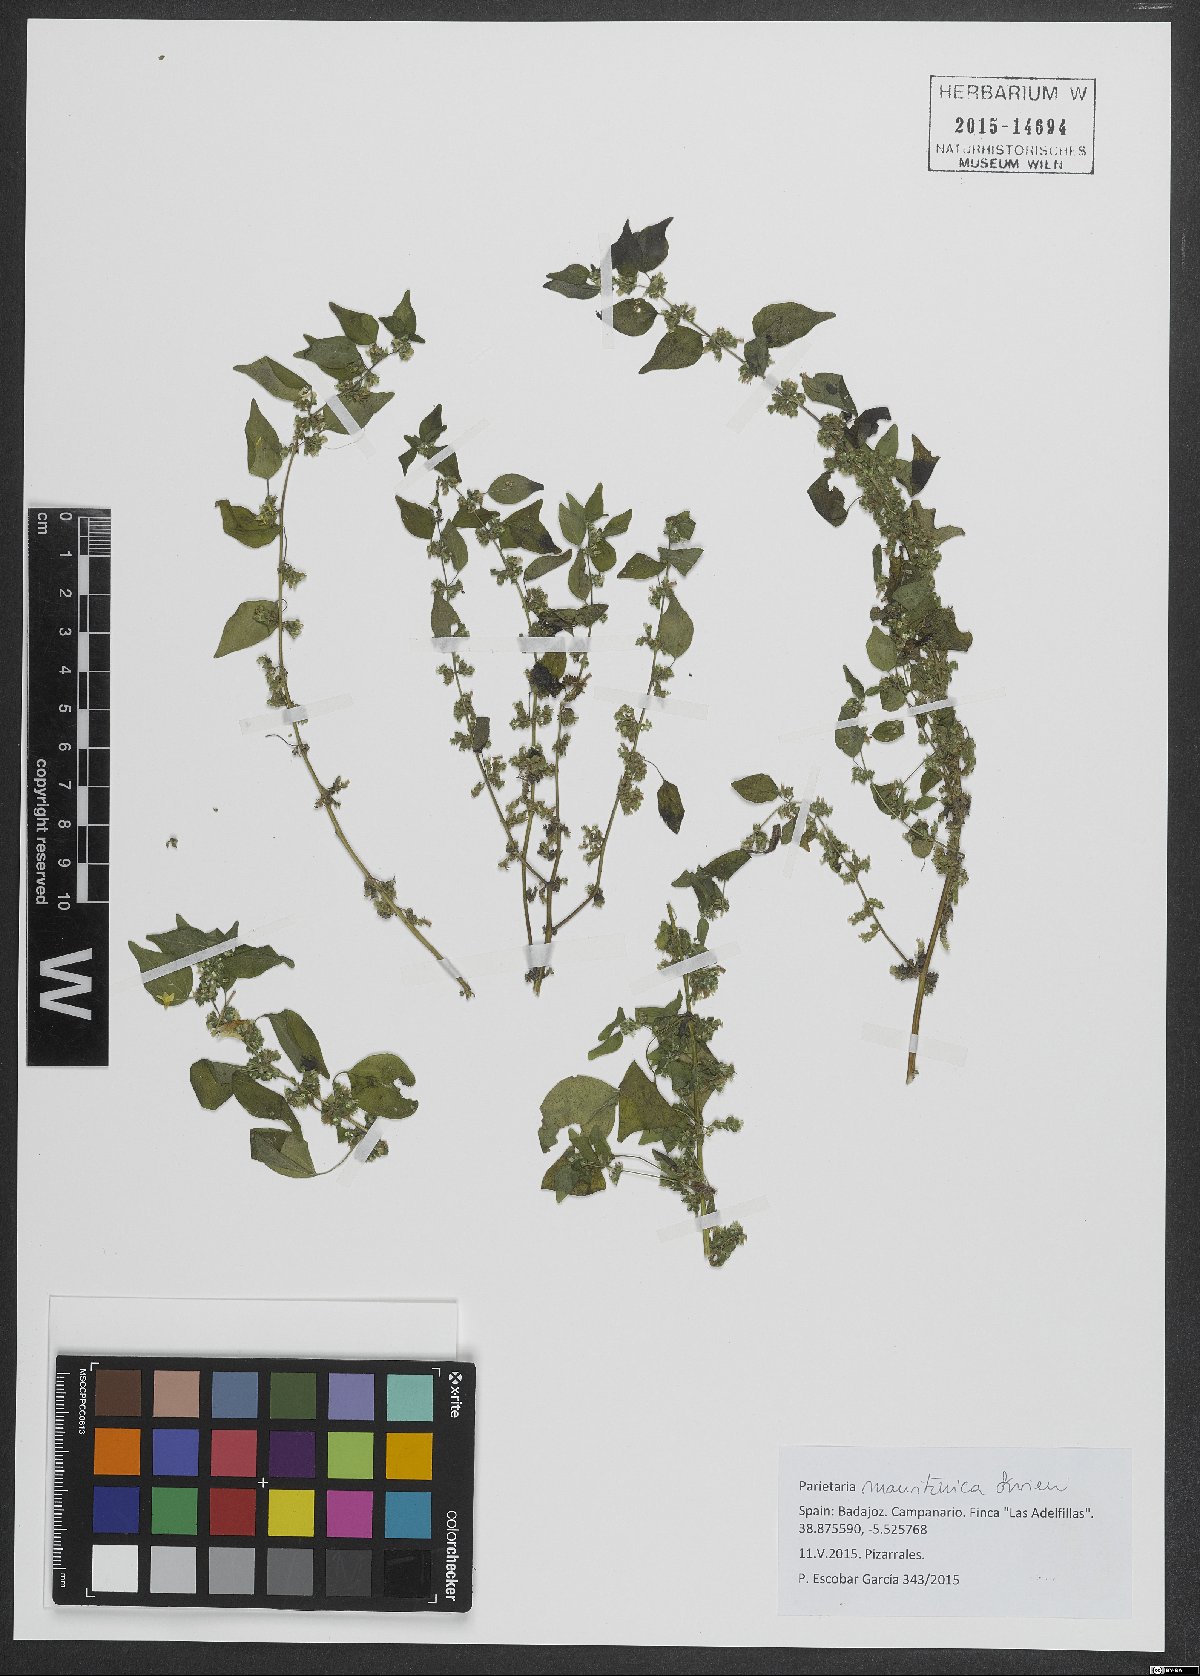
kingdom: Plantae
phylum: Tracheophyta
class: Magnoliopsida
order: Rosales
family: Urticaceae
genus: Parietaria
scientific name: Parietaria mauritanica
